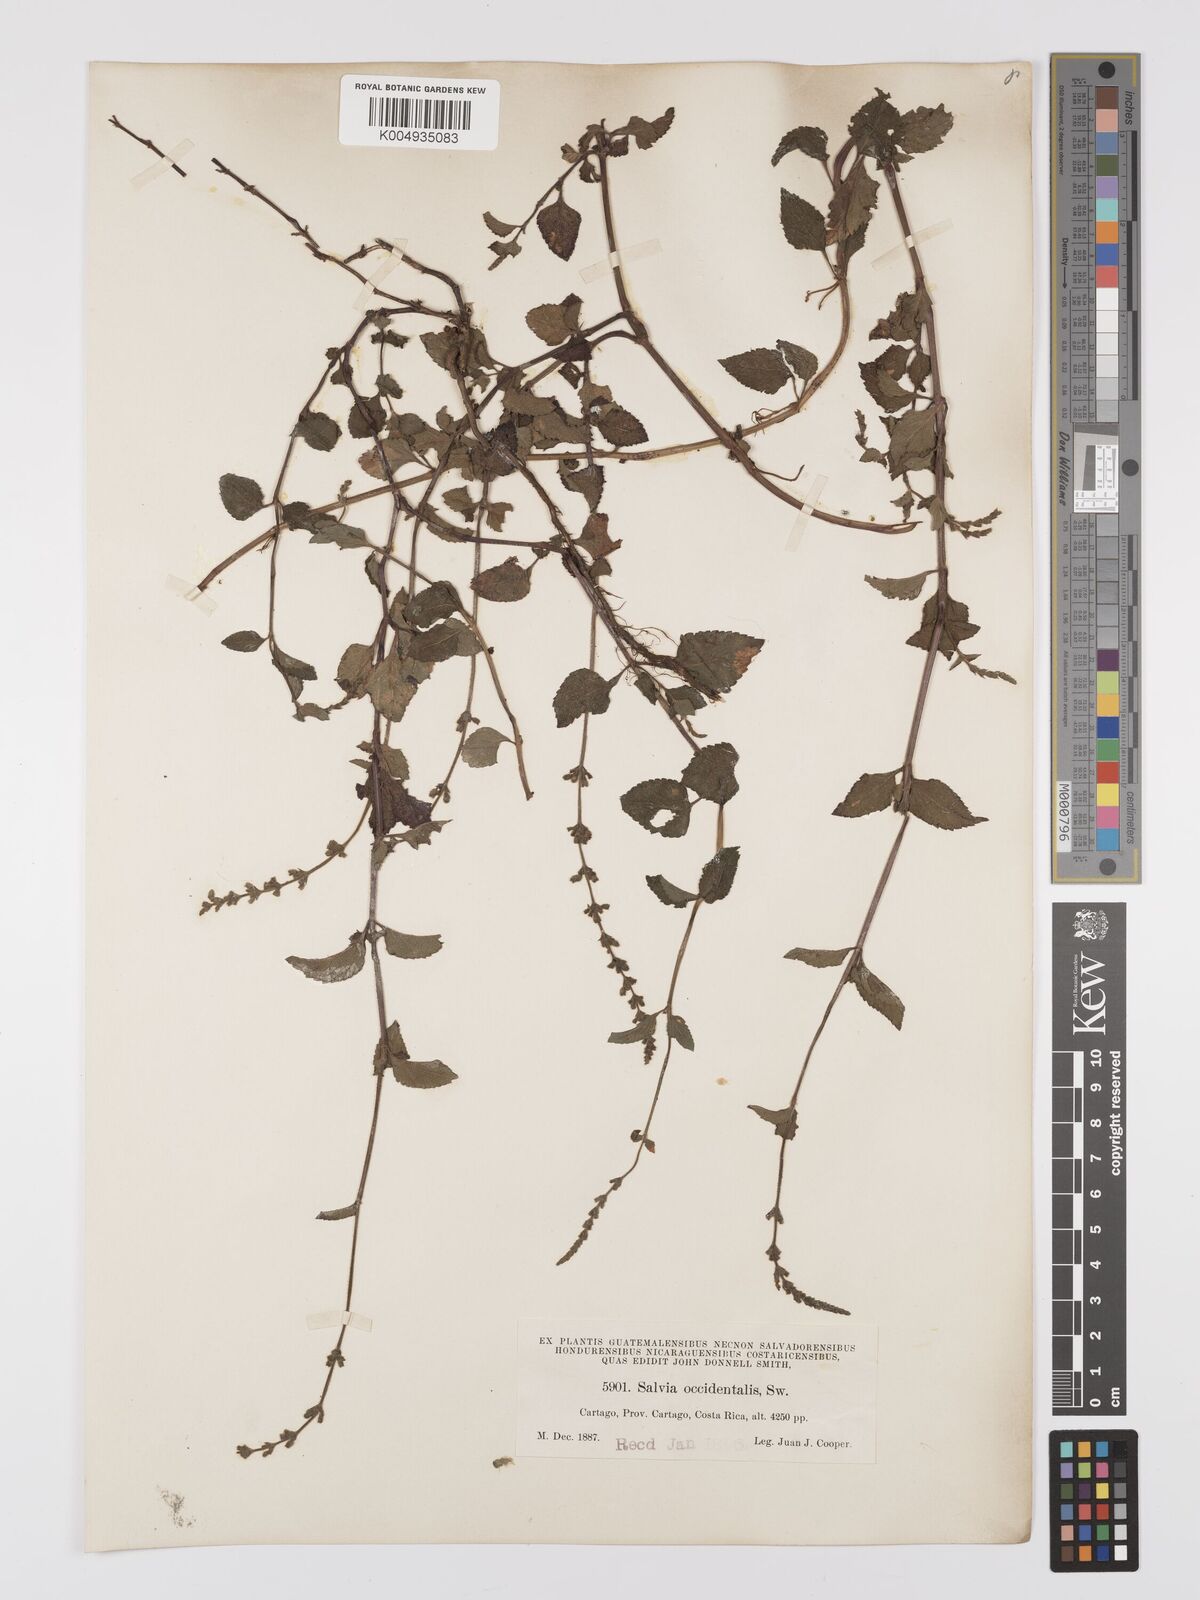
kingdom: Plantae
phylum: Tracheophyta
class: Magnoliopsida
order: Lamiales
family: Lamiaceae
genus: Salvia
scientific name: Salvia occidentalis
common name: West indian sage
